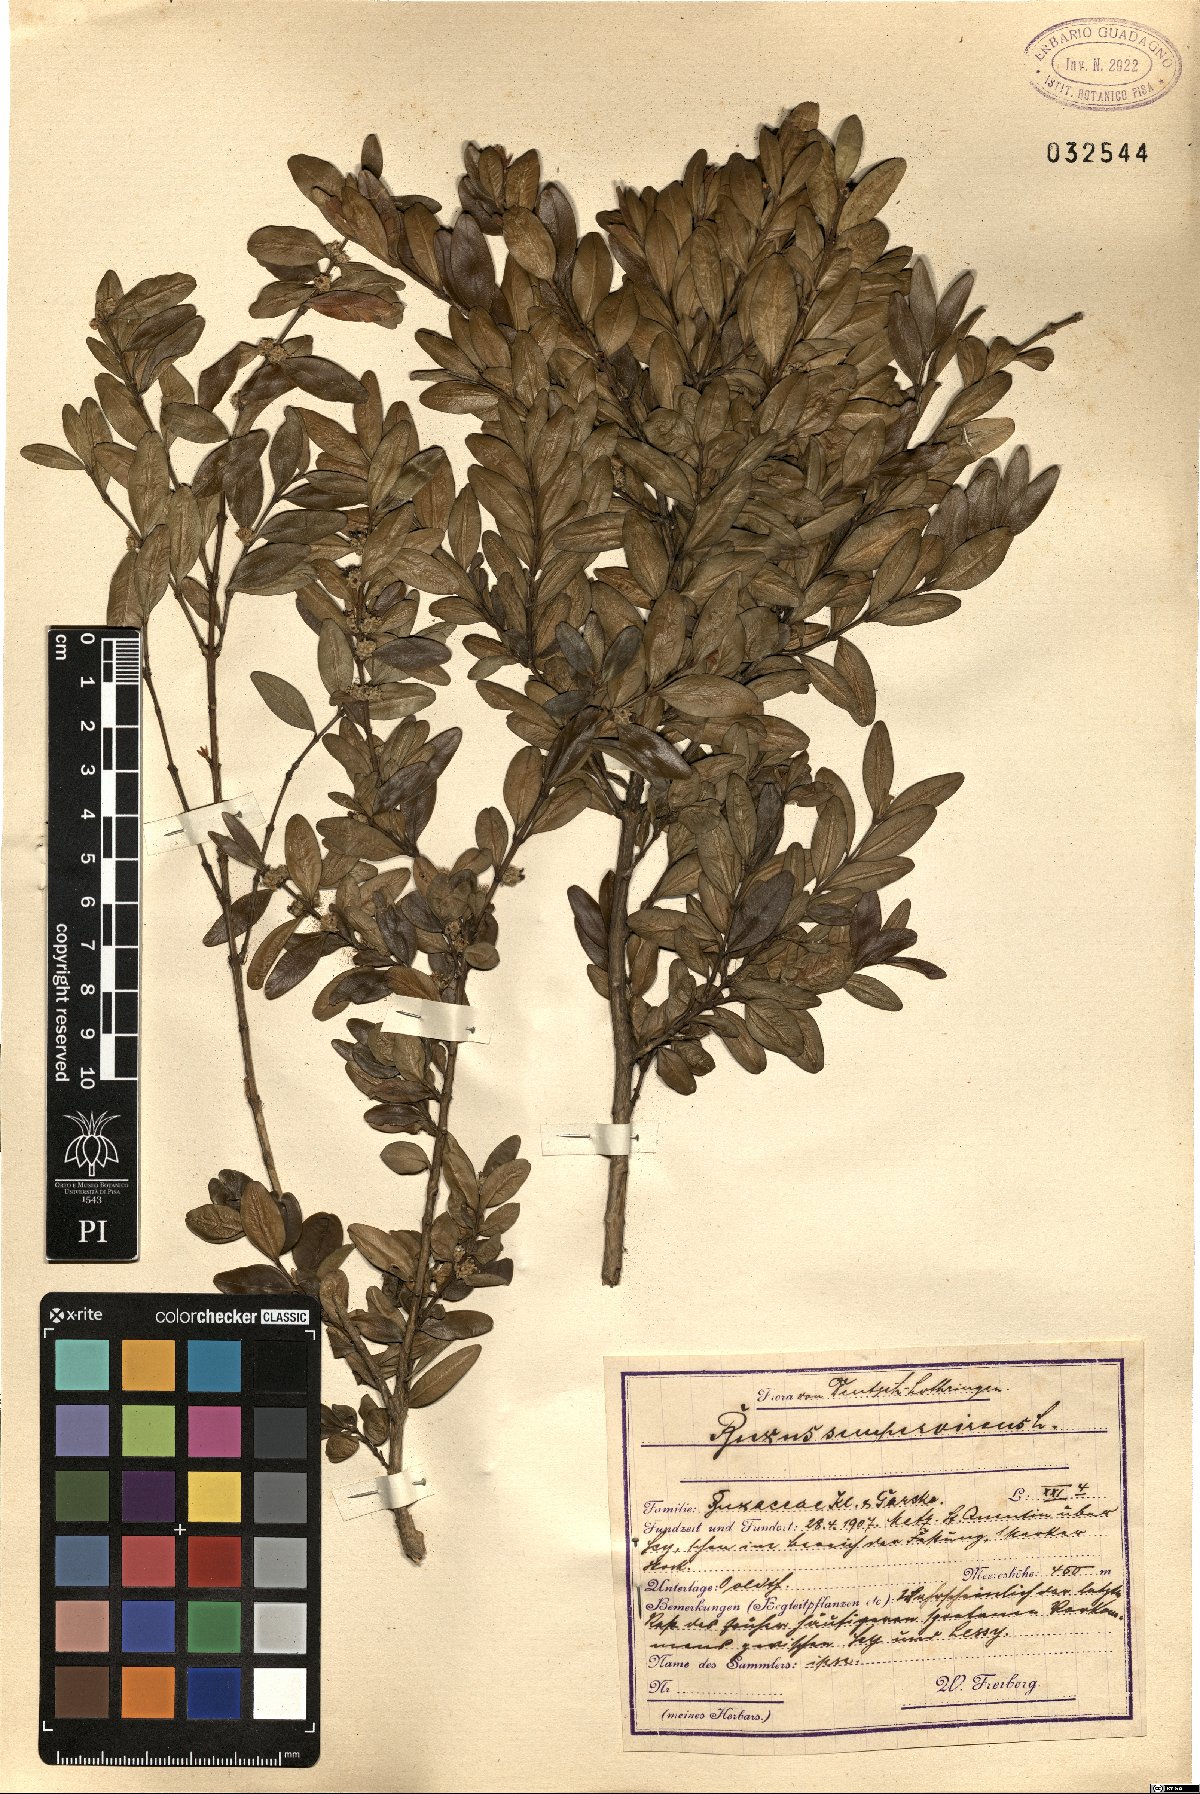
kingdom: Plantae
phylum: Tracheophyta
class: Magnoliopsida
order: Buxales
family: Buxaceae
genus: Buxus
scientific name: Buxus sempervirens
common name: Box
